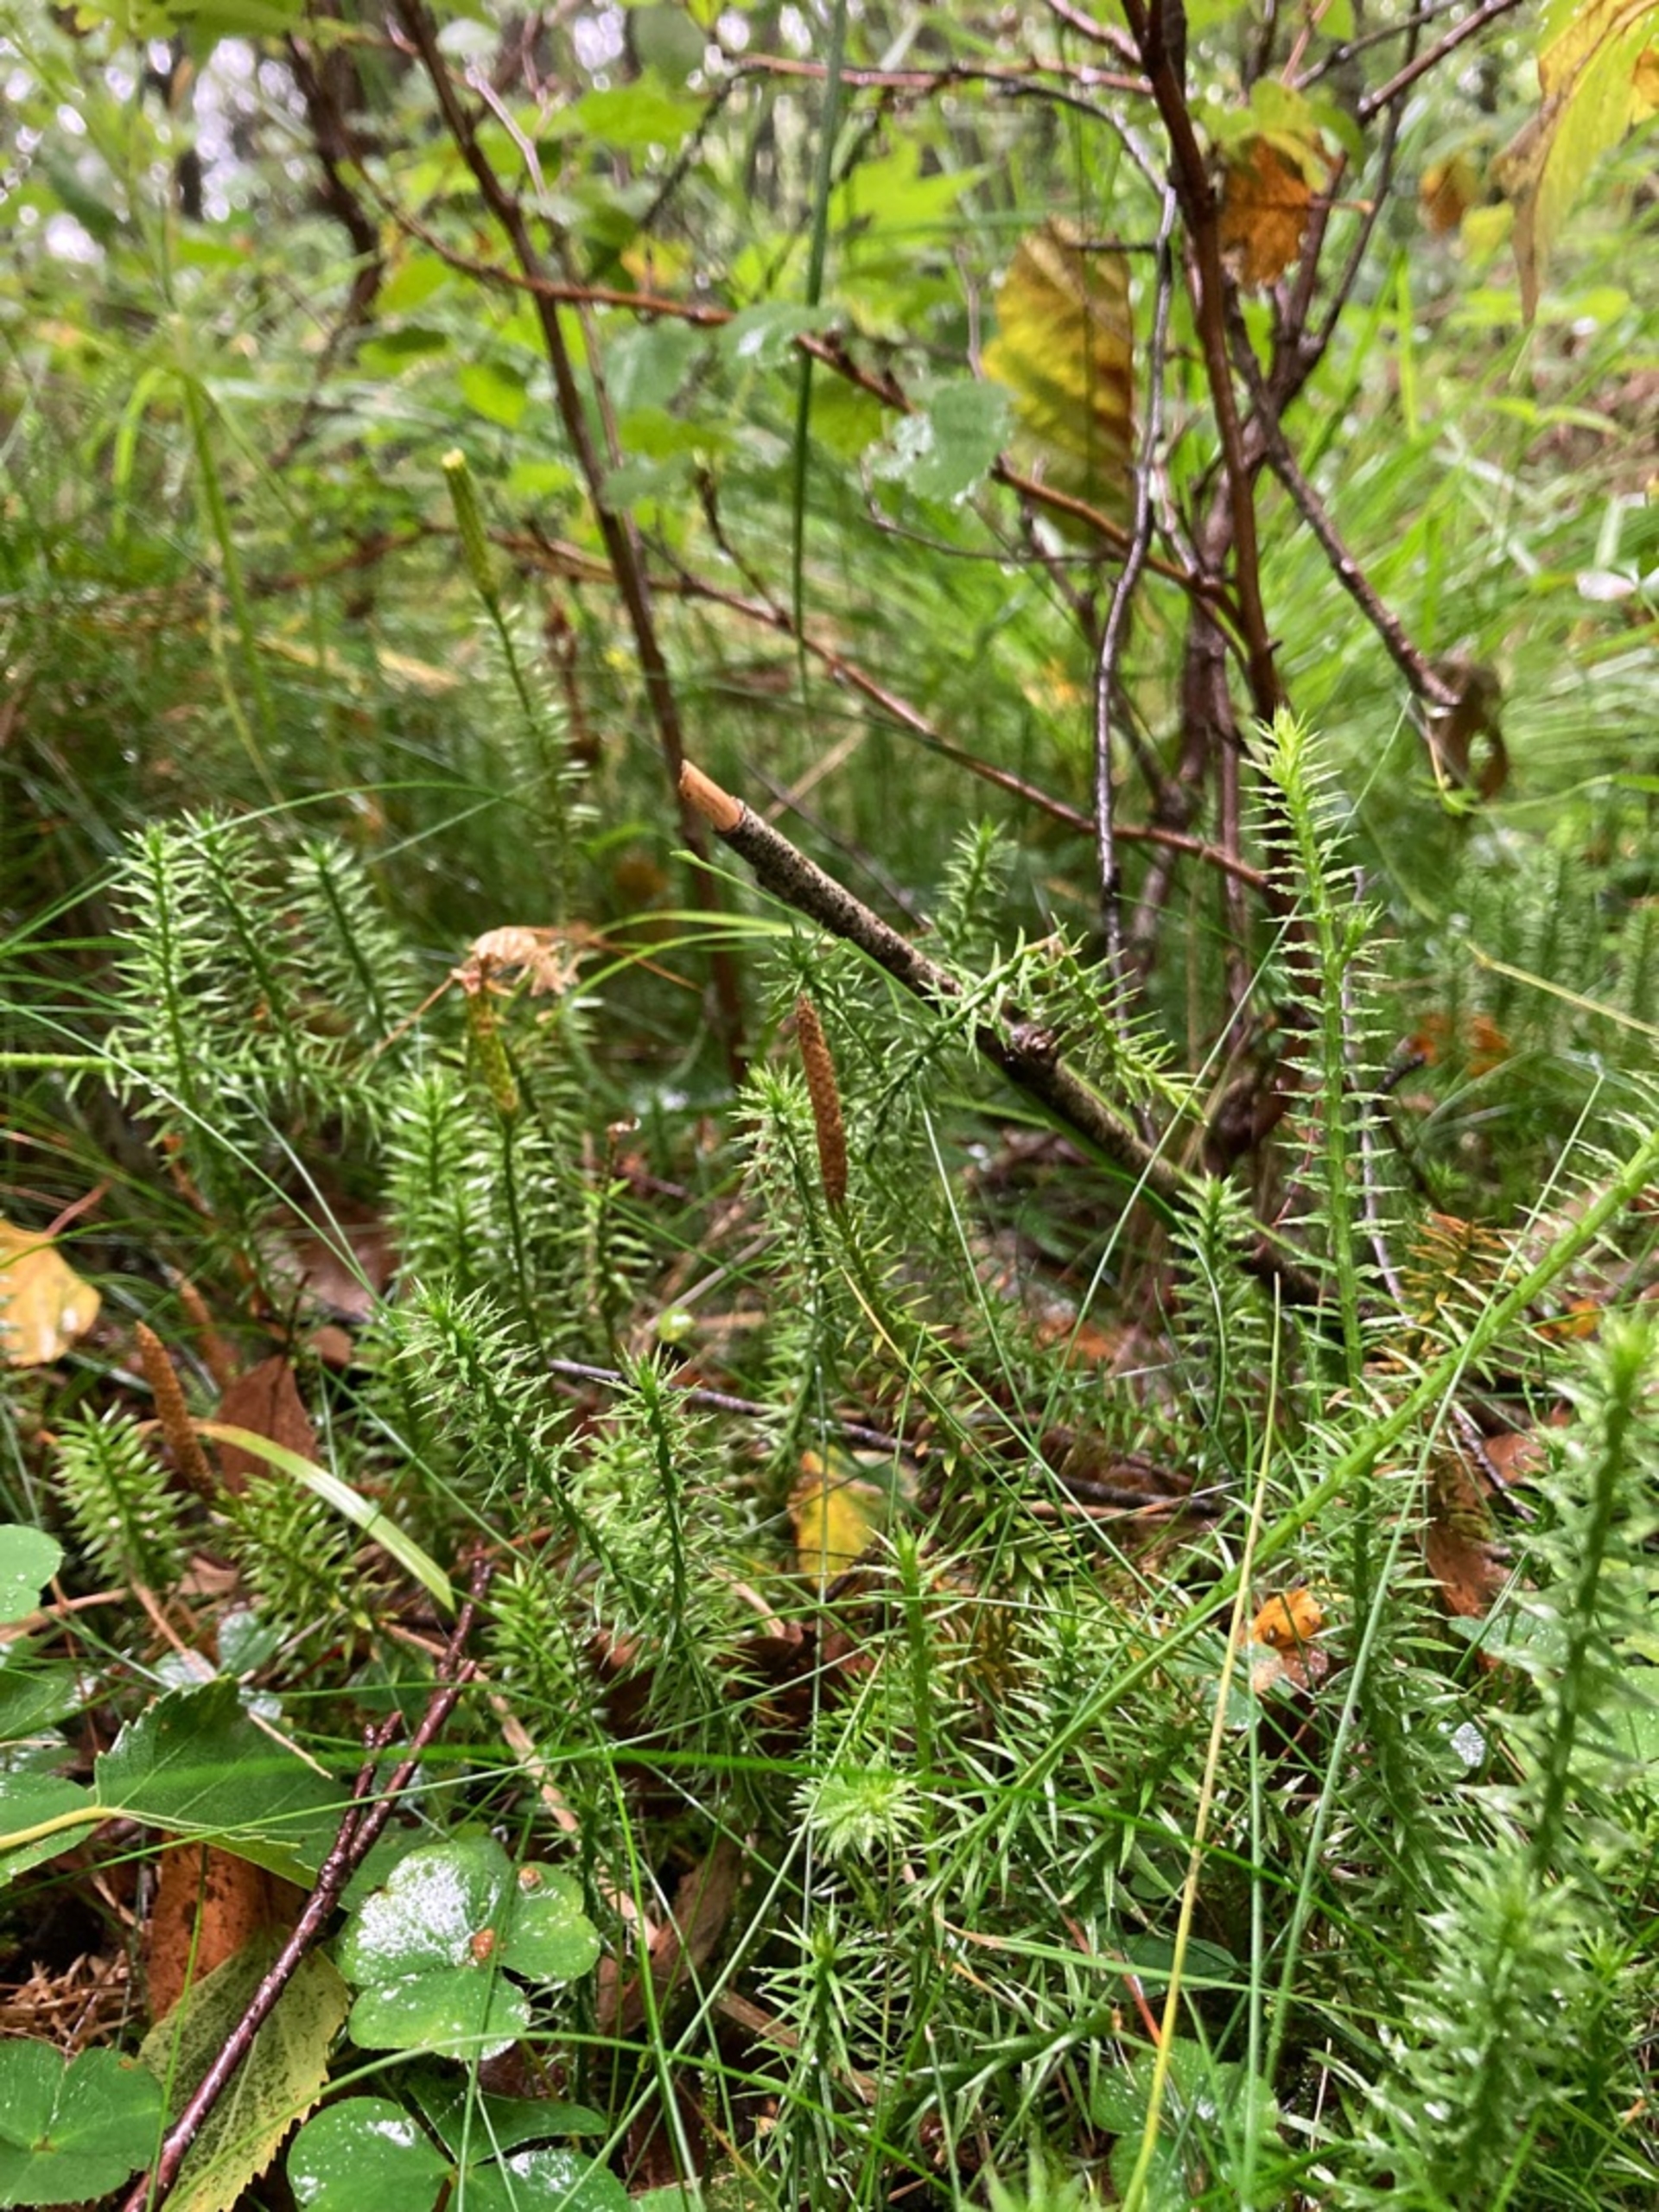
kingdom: Plantae
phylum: Tracheophyta
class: Lycopodiopsida
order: Lycopodiales
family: Lycopodiaceae
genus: Spinulum
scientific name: Spinulum annotinum
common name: Femradet ulvefod
